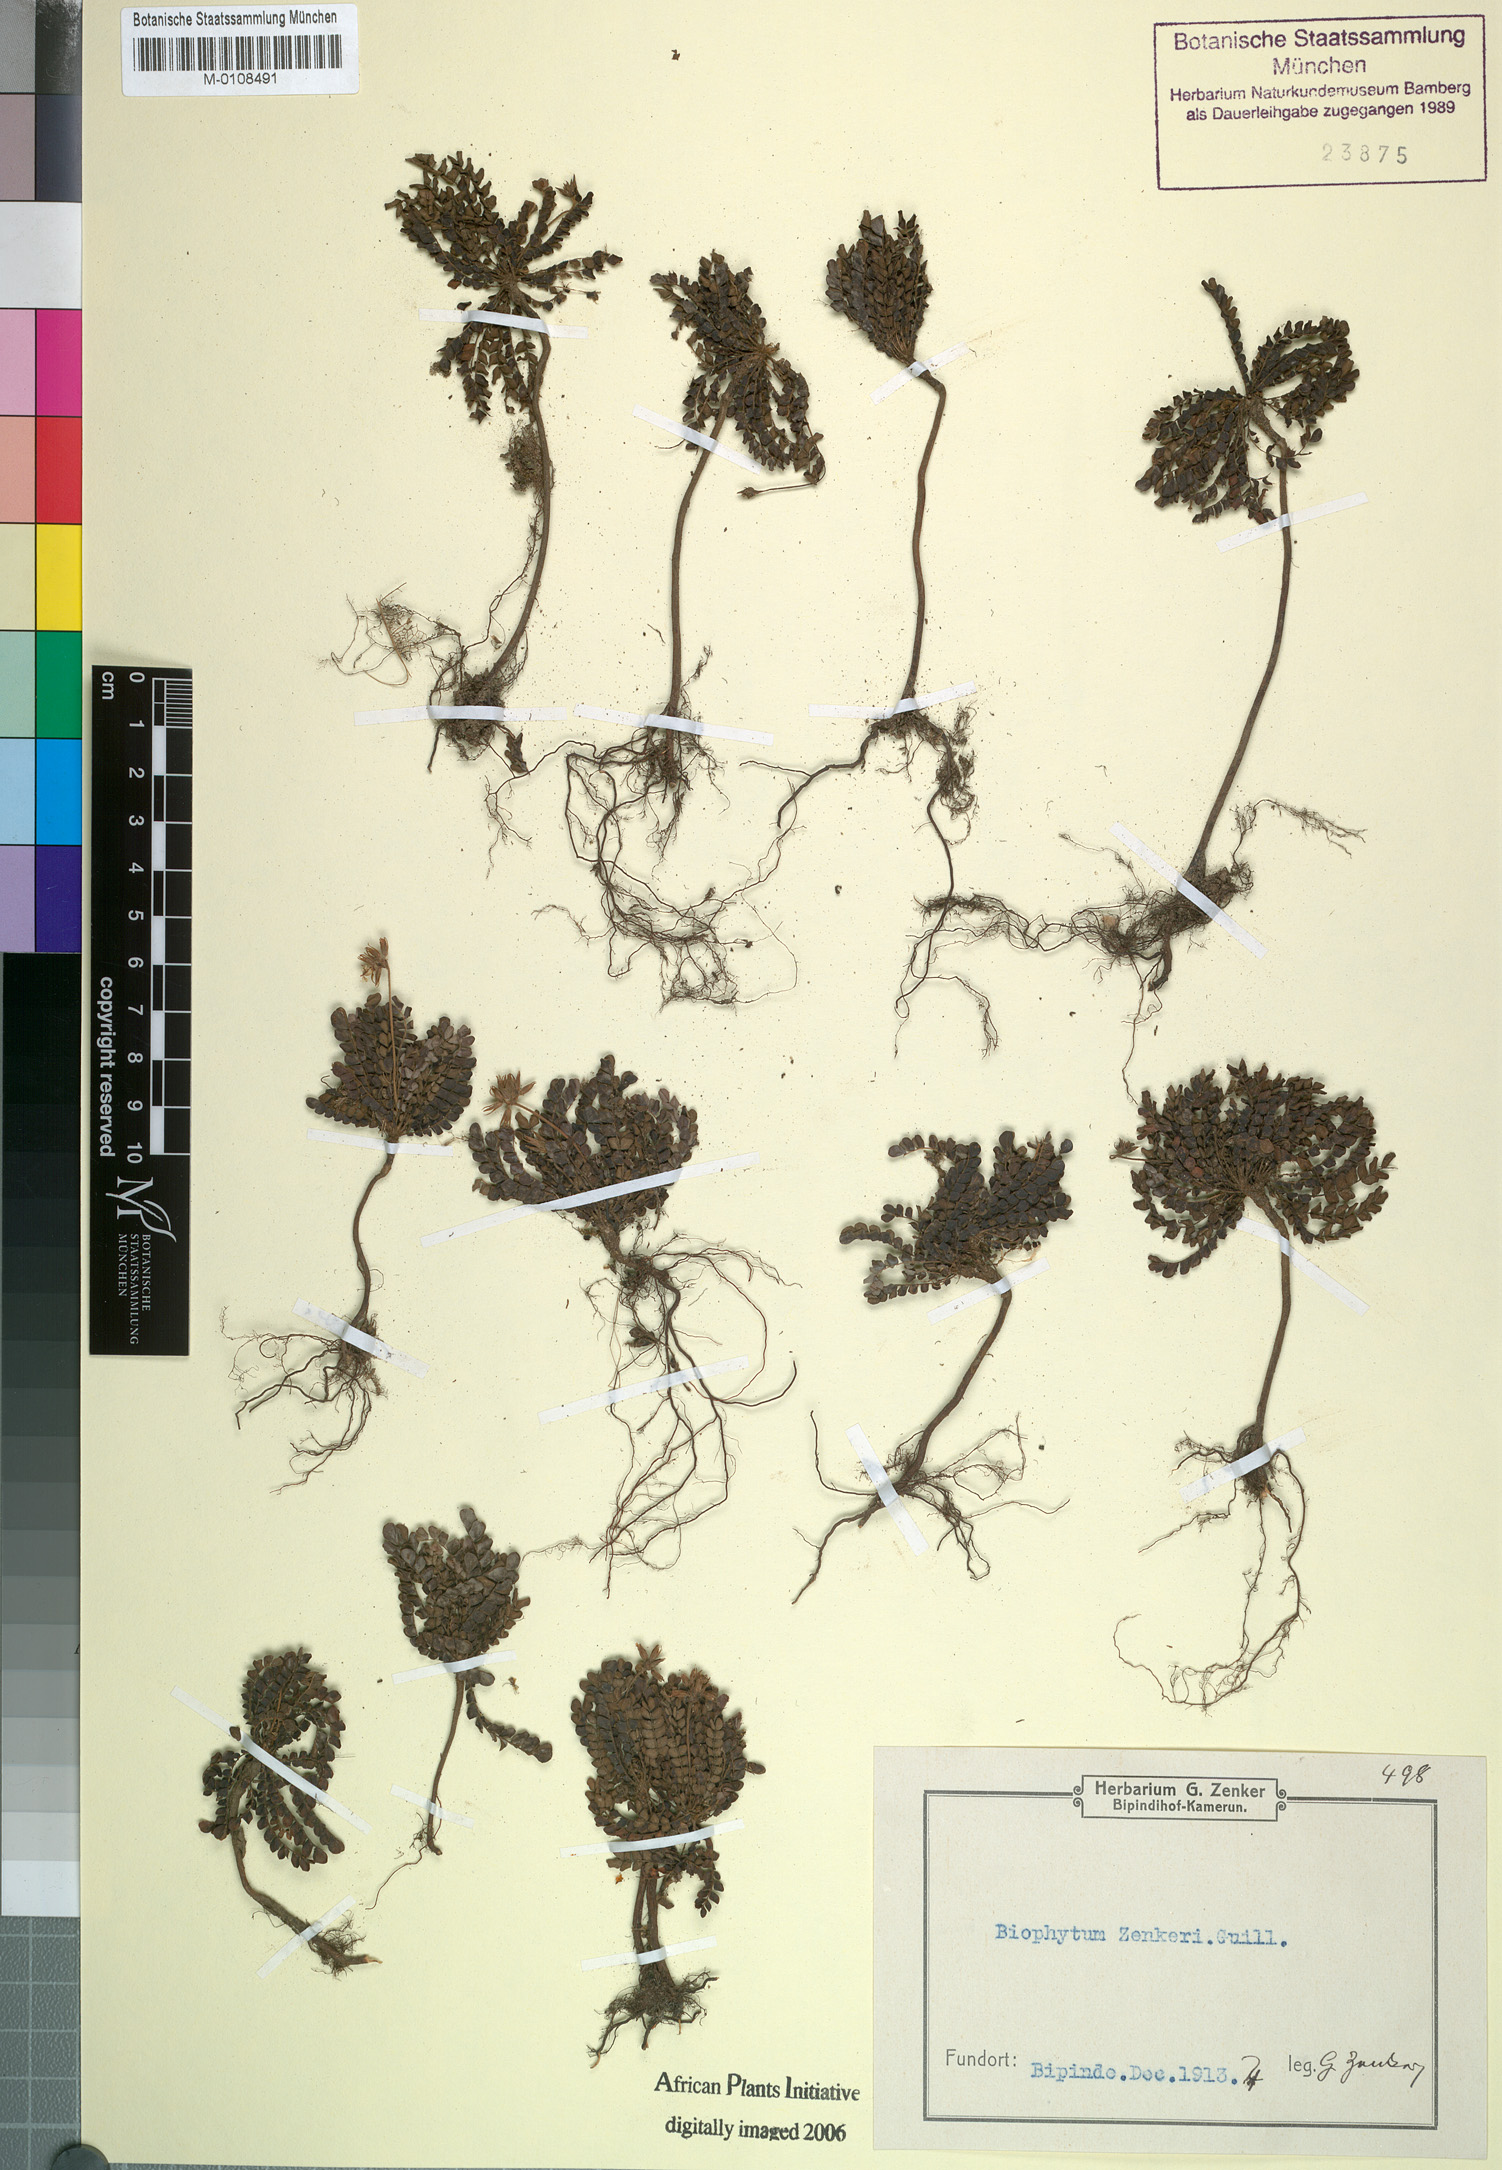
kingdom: Plantae
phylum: Tracheophyta
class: Magnoliopsida
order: Oxalidales
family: Oxalidaceae
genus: Biophytum
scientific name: Biophytum zenkeri
